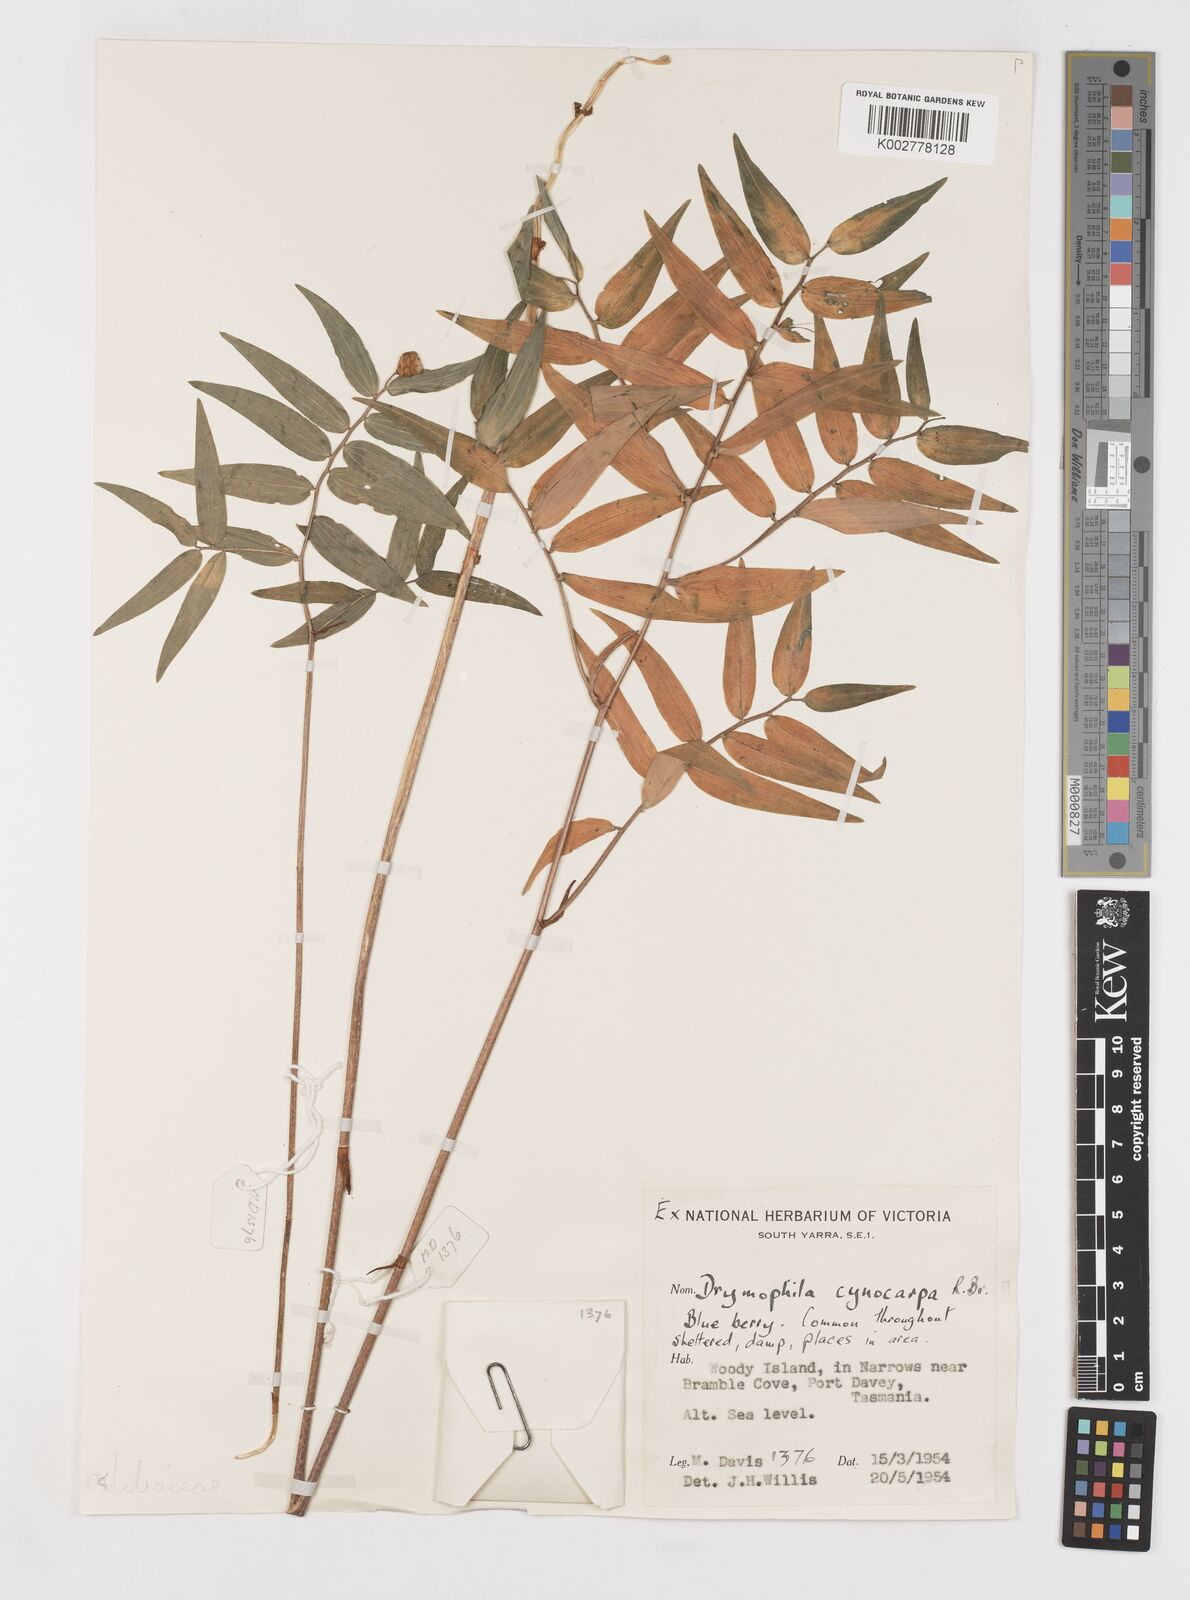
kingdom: Plantae
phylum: Tracheophyta
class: Liliopsida
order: Liliales
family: Alstroemeriaceae
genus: Drymophila
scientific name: Drymophila cyanocarpa
